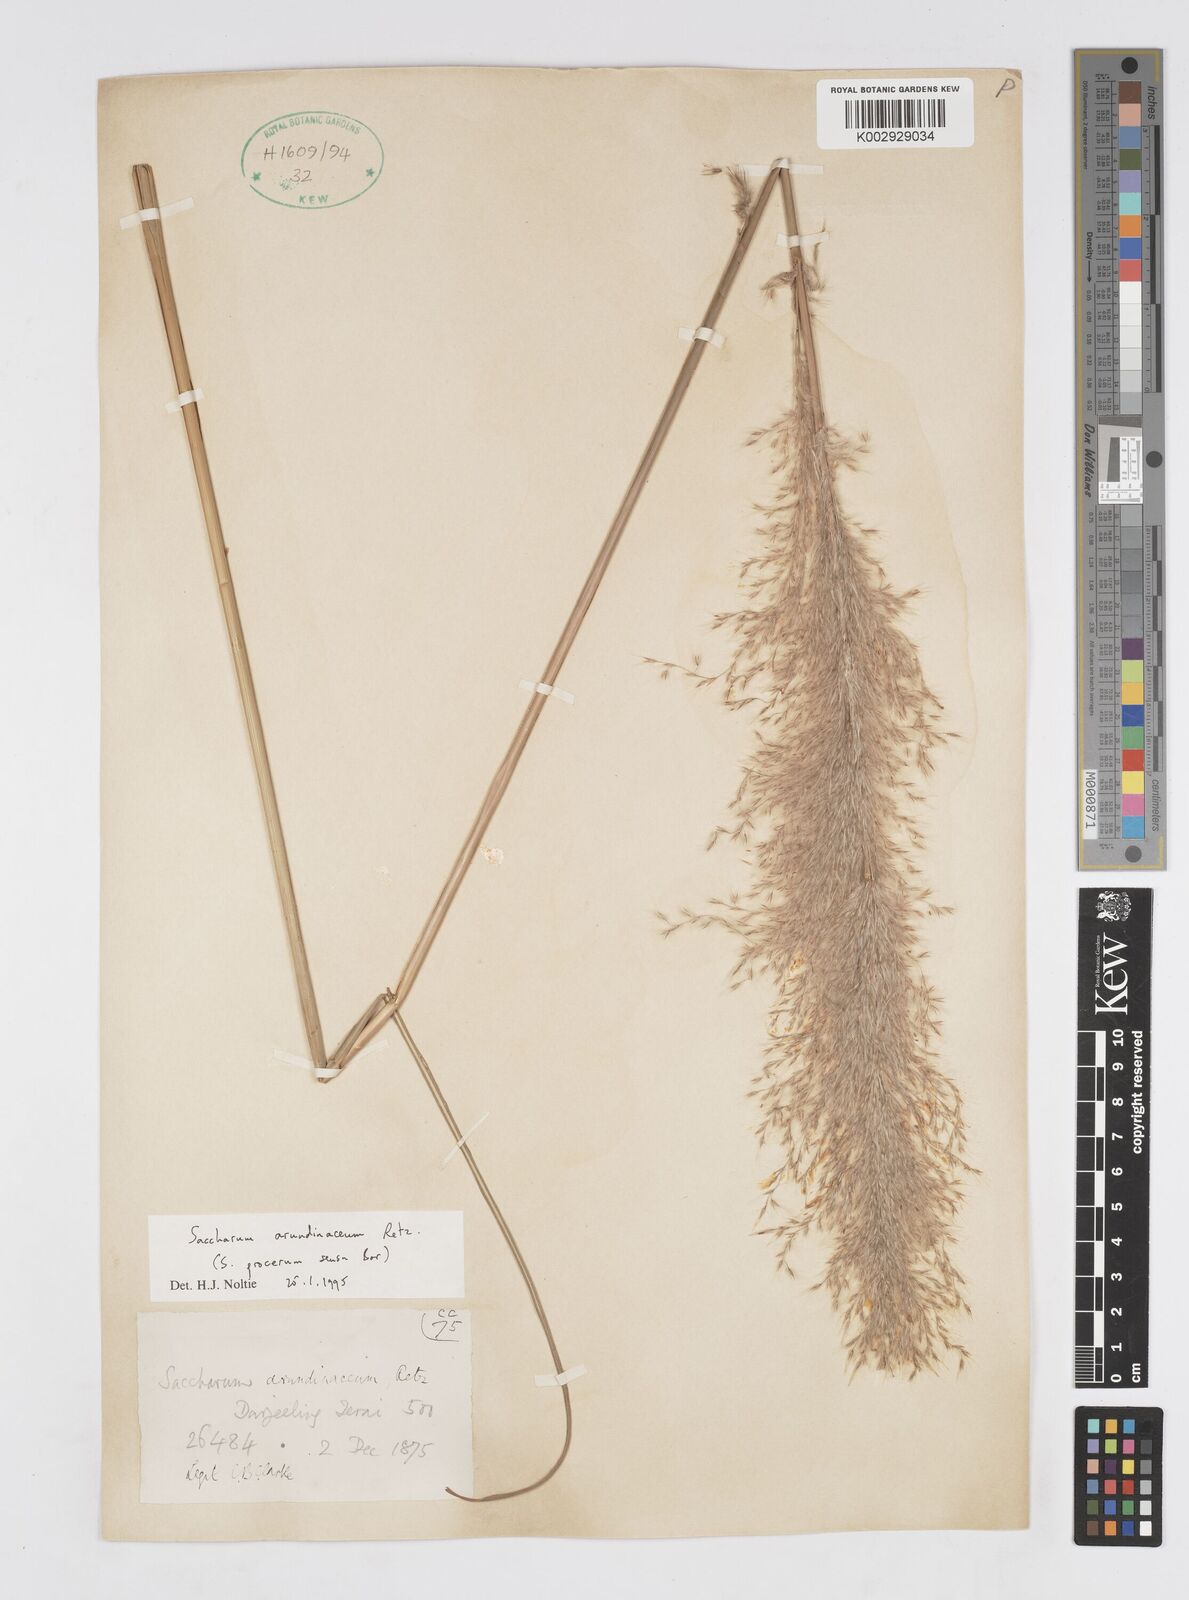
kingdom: Plantae
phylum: Tracheophyta
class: Liliopsida
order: Poales
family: Poaceae
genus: Tripidium
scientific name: Tripidium arundinaceum
